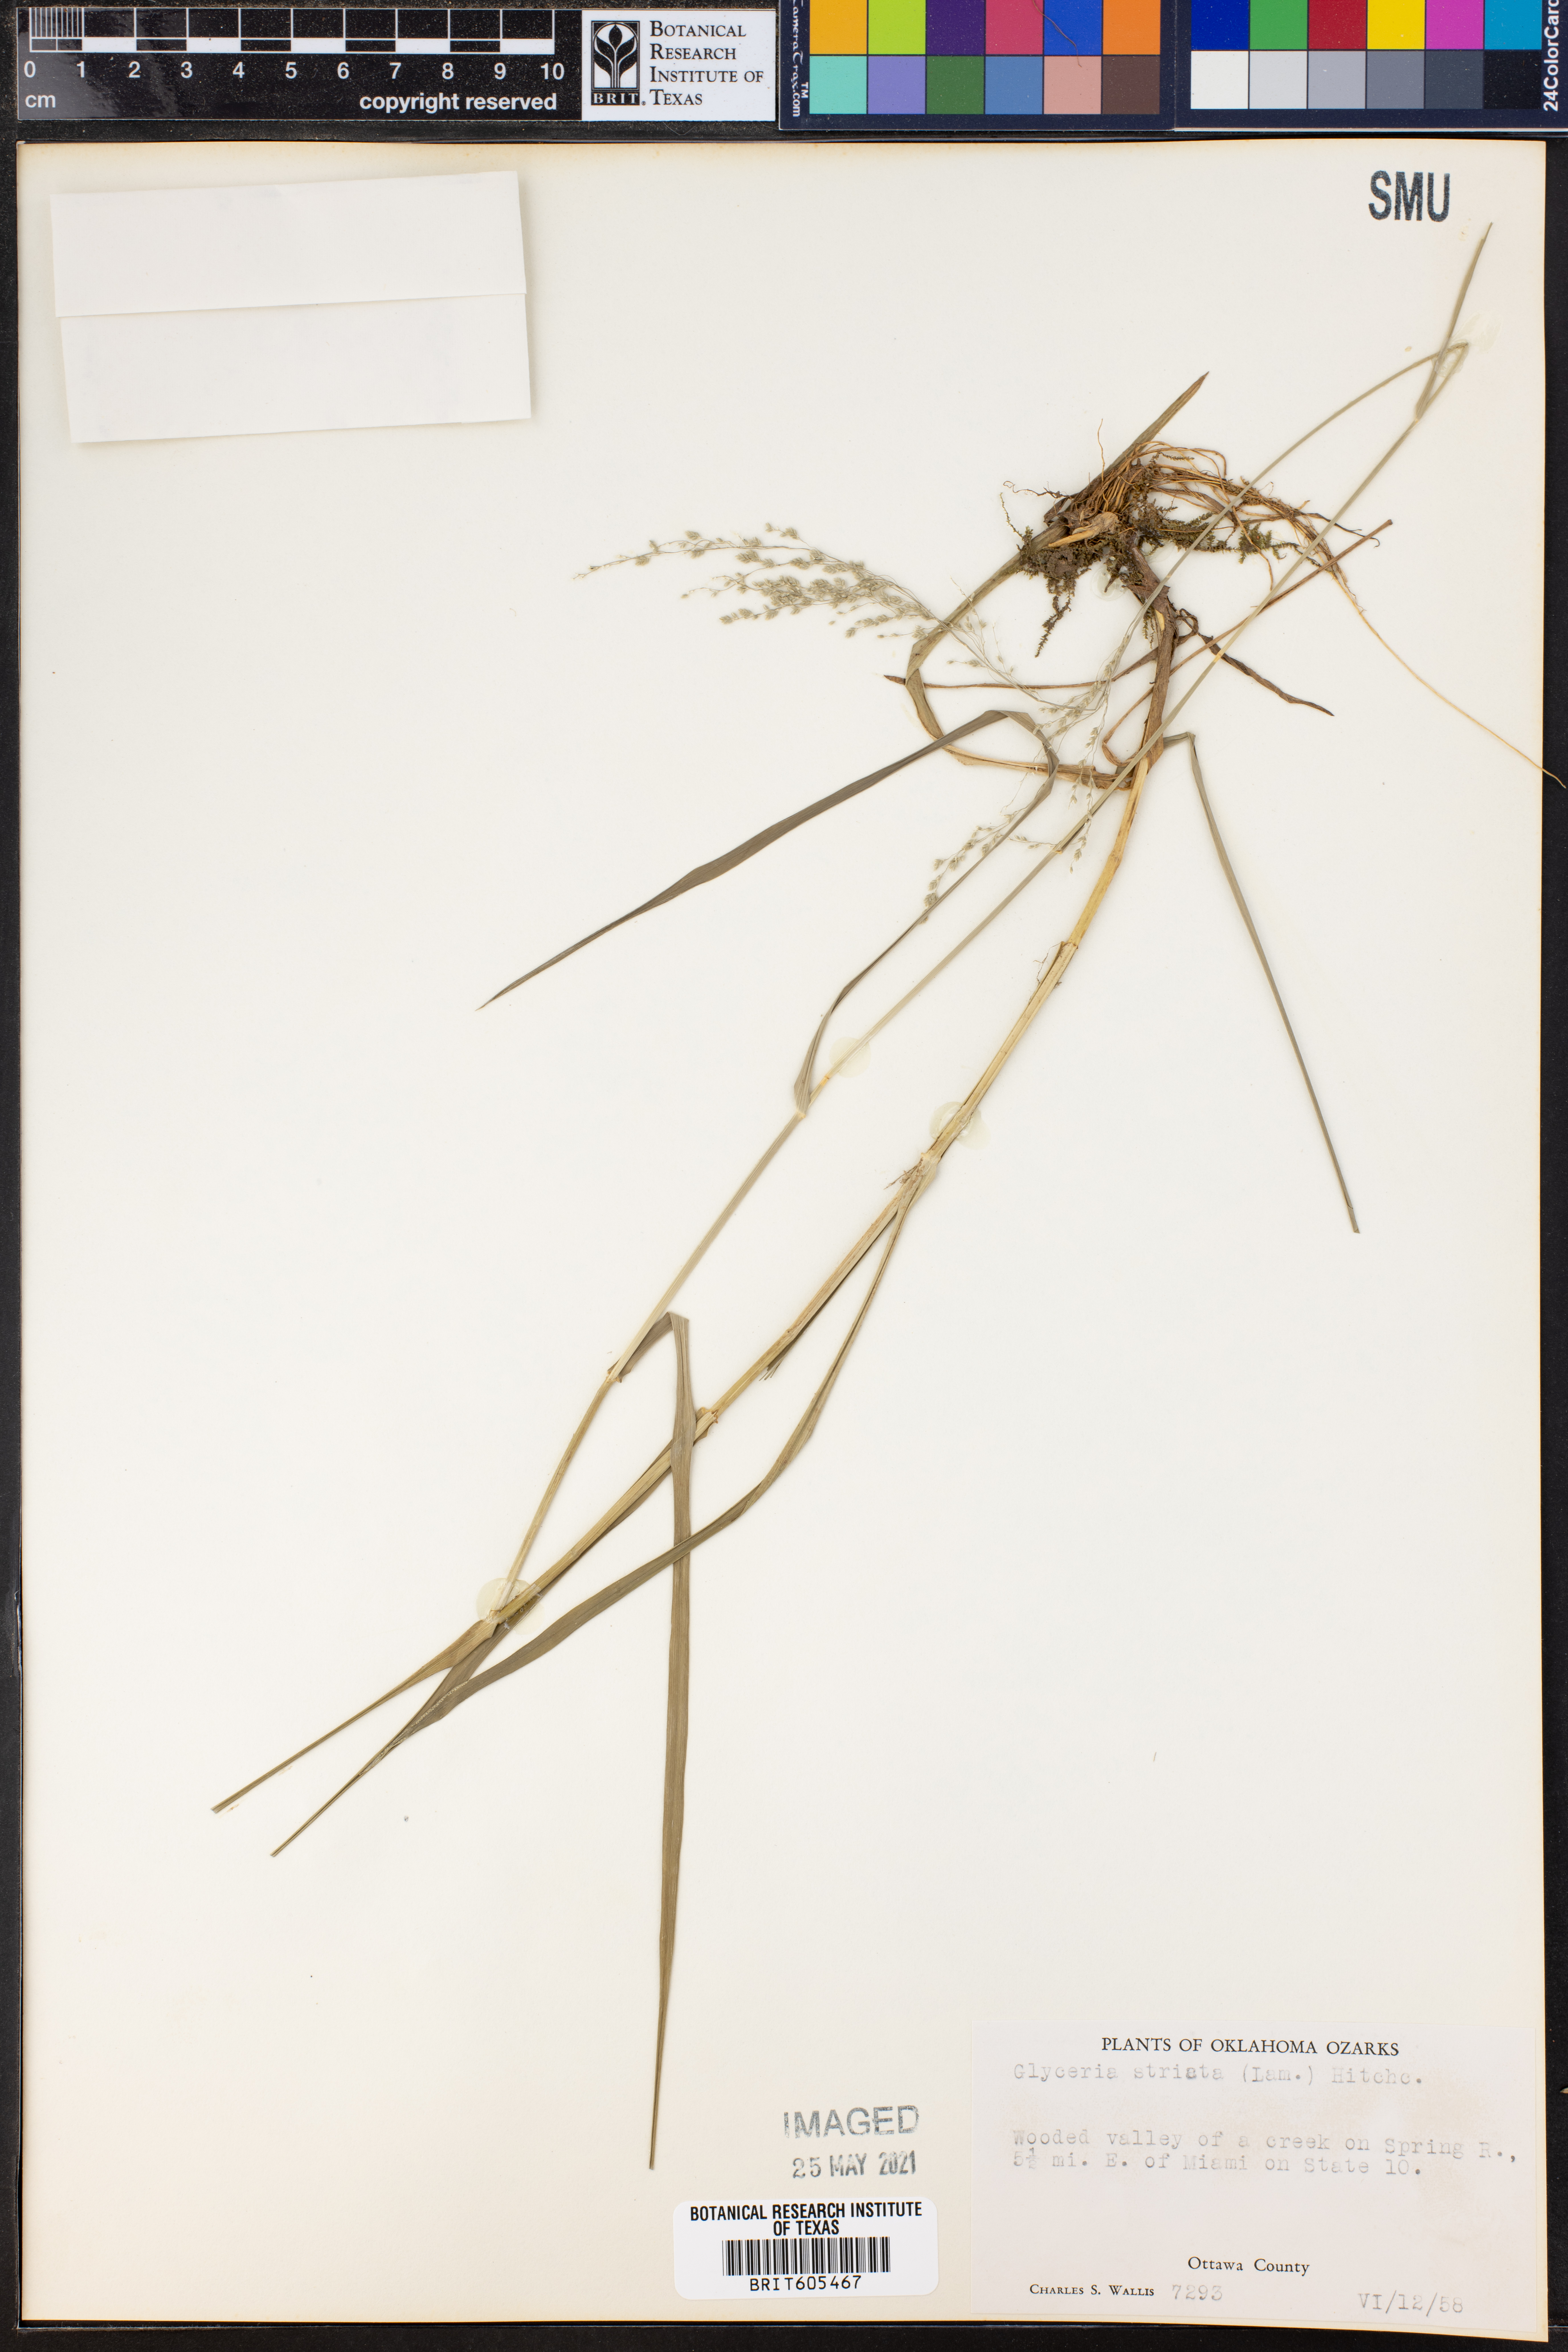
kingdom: Plantae
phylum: Tracheophyta
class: Liliopsida
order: Poales
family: Poaceae
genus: Glyceria
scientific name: Glyceria striata
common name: Fowl manna grass
